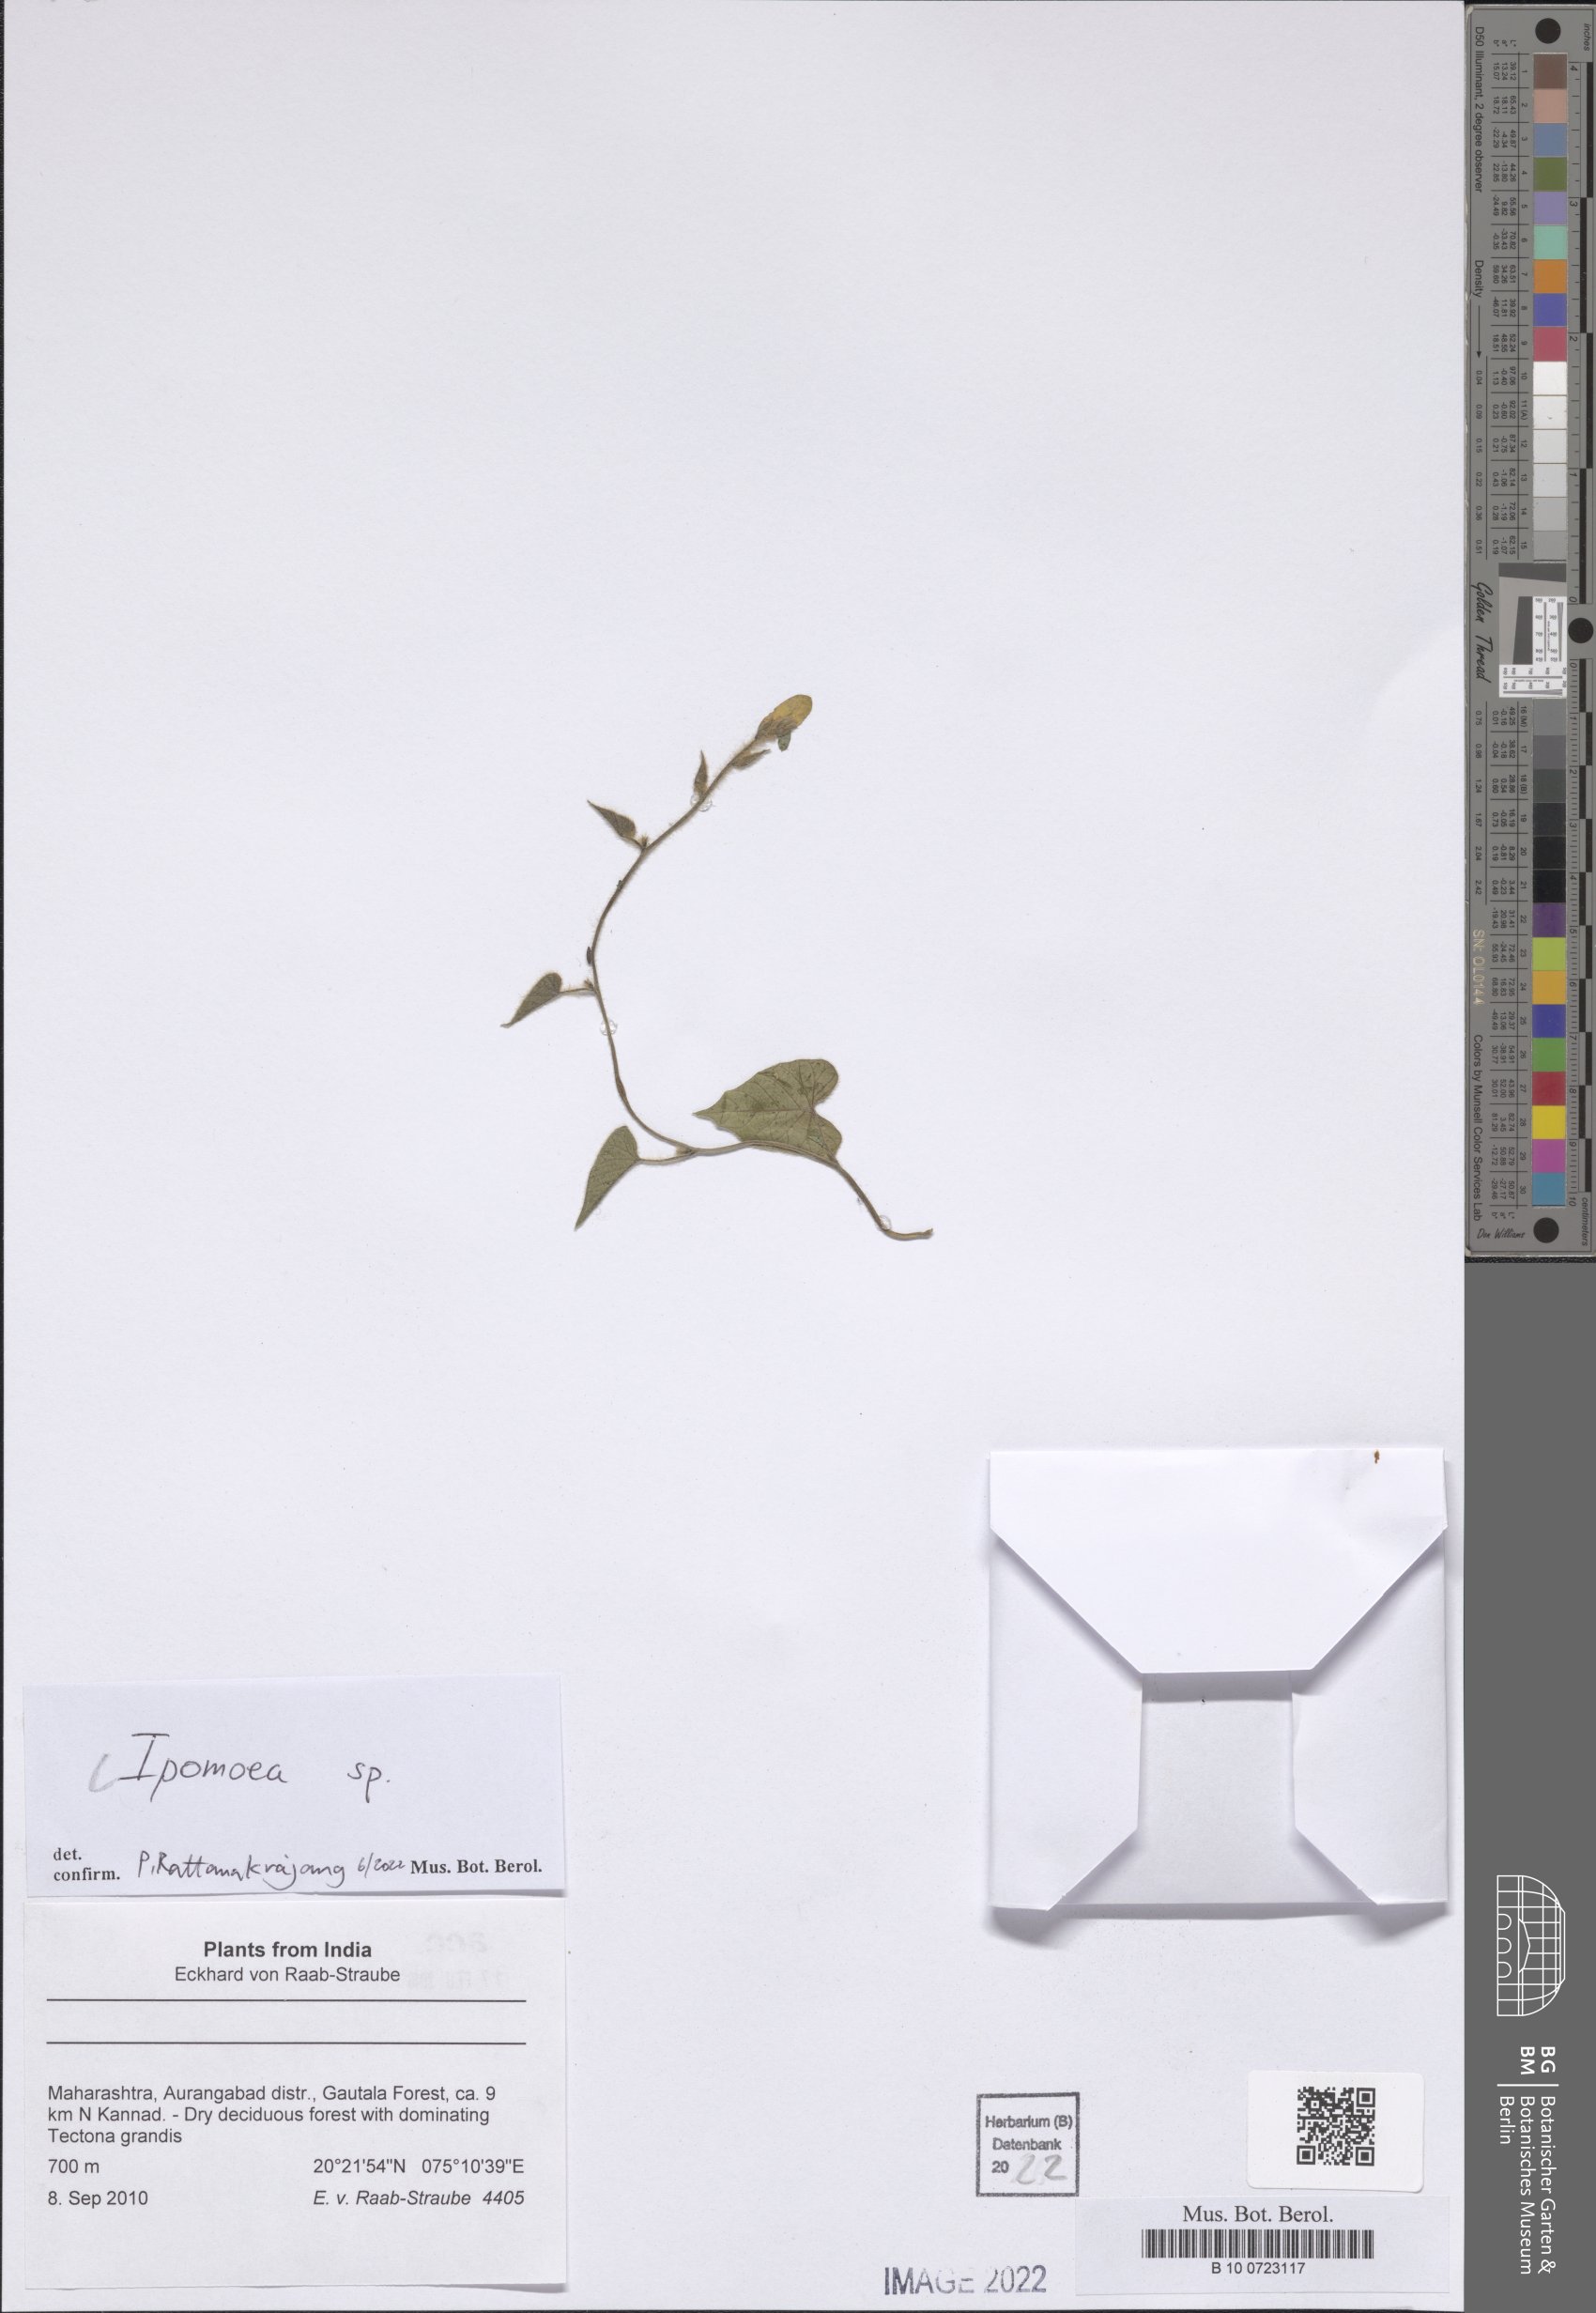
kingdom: Plantae
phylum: Tracheophyta
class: Magnoliopsida
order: Solanales
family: Convolvulaceae
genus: Ipomoea
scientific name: Ipomoea
